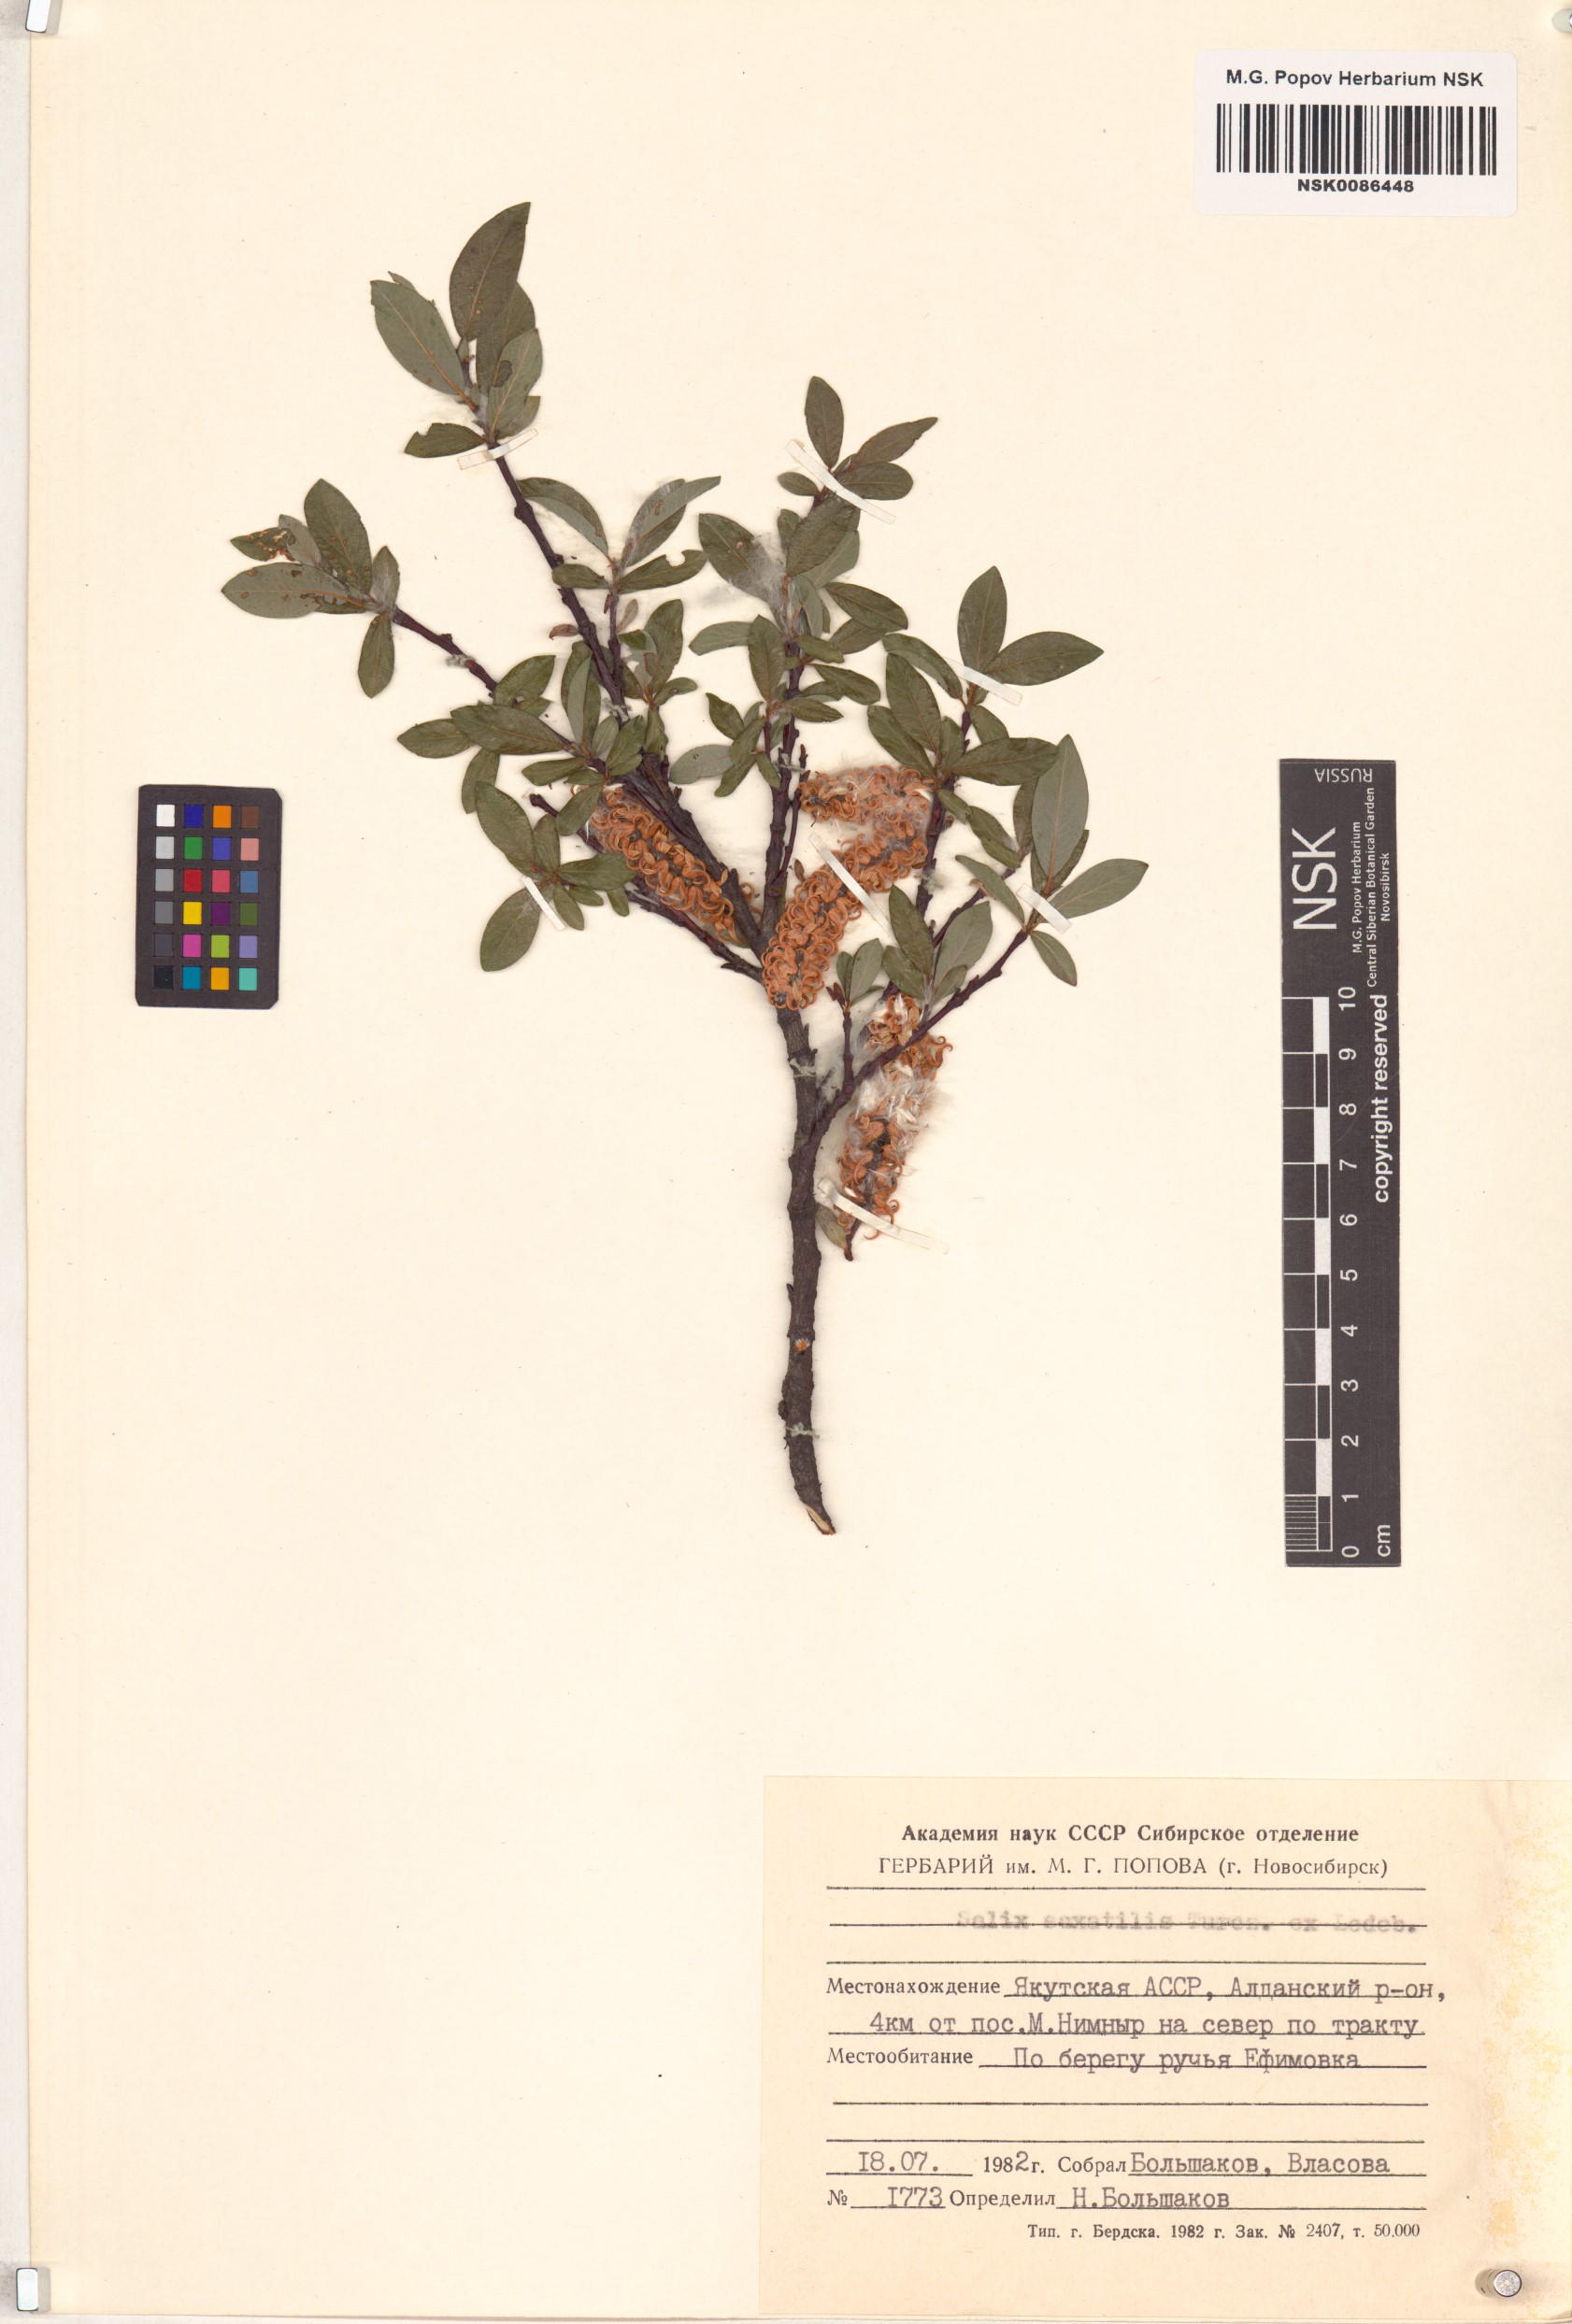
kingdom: Plantae
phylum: Tracheophyta
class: Magnoliopsida
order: Malpighiales
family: Salicaceae
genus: Salix
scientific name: Salix saxatilis
